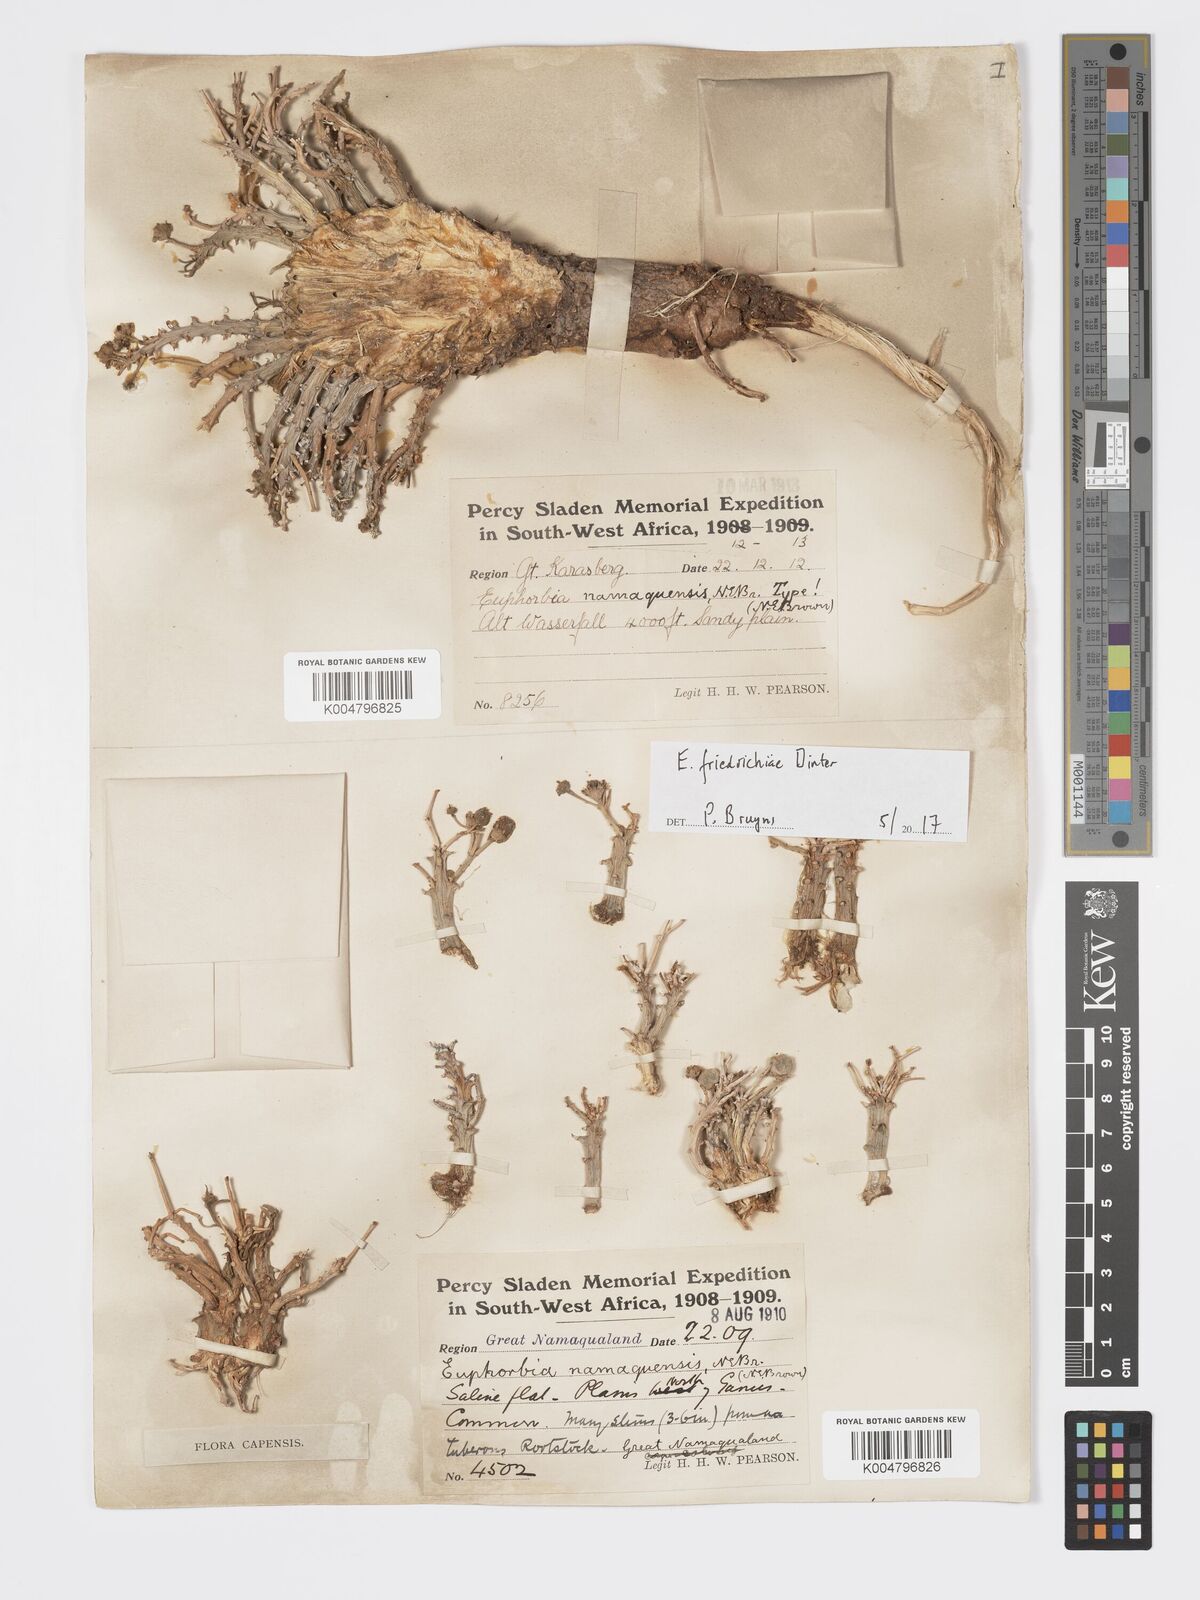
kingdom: Plantae
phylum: Tracheophyta
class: Magnoliopsida
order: Malpighiales
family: Euphorbiaceae
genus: Euphorbia
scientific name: Euphorbia friedrichiae
